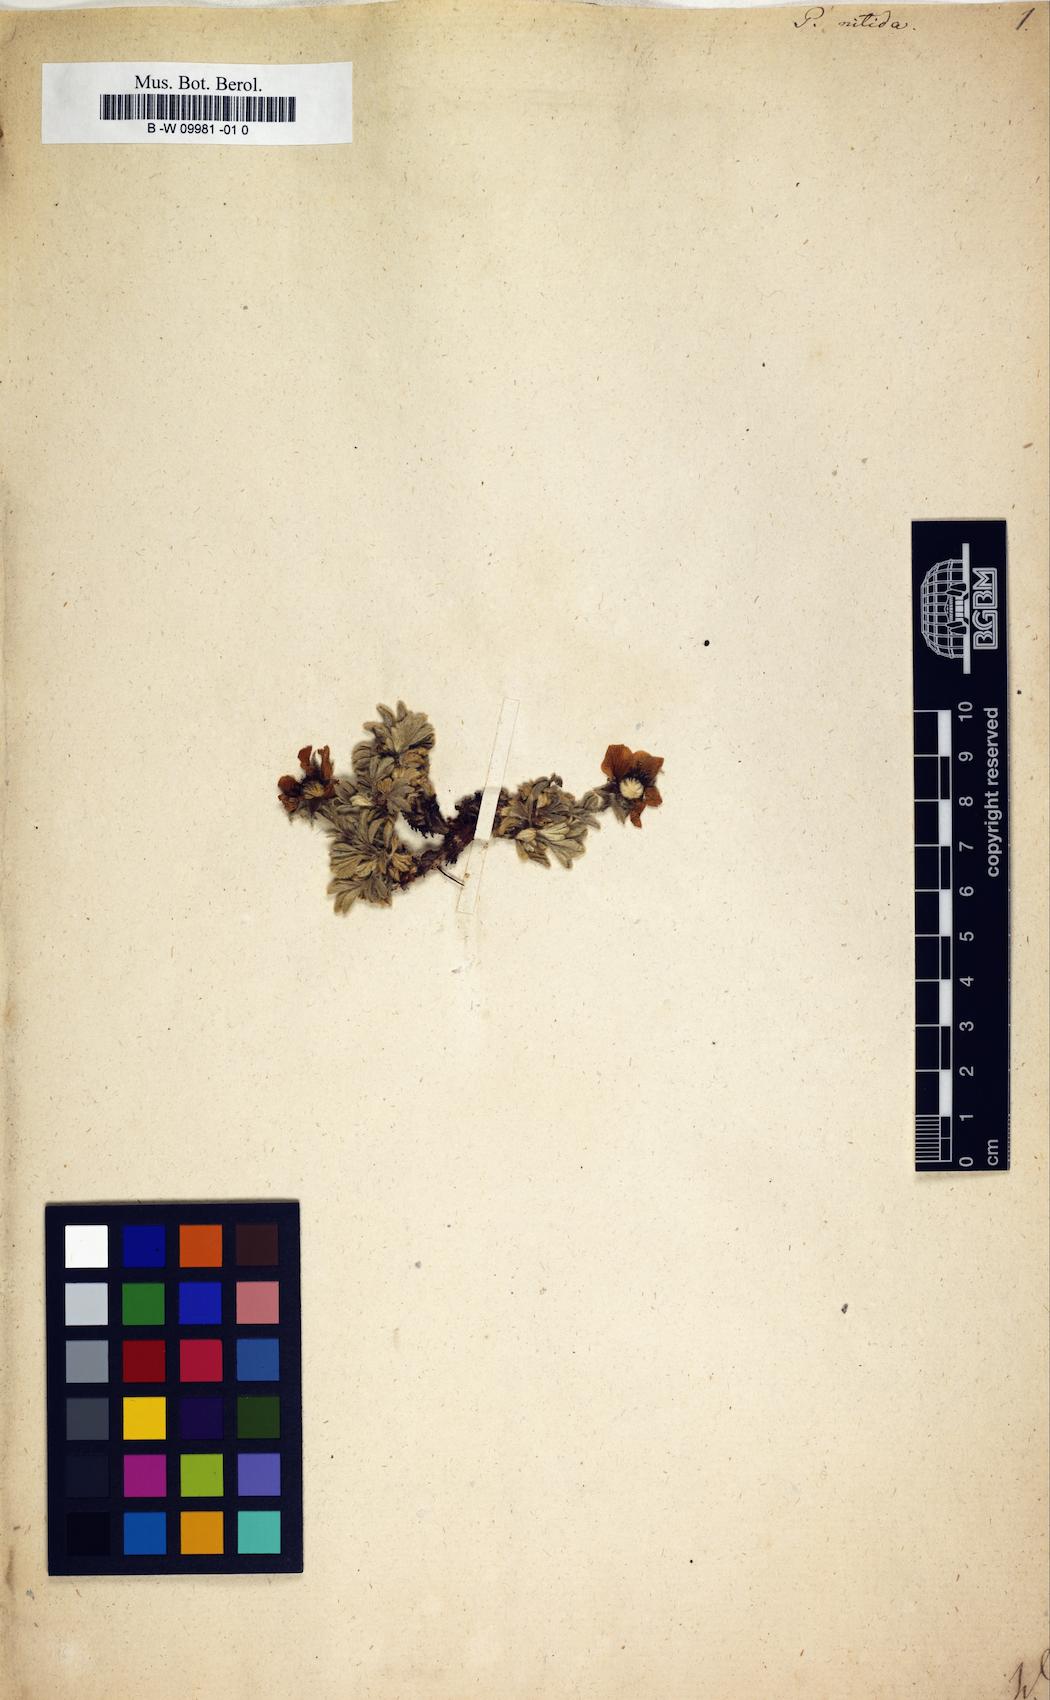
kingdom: Plantae
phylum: Tracheophyta
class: Magnoliopsida
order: Rosales
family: Rosaceae
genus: Potentilla
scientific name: Potentilla nitida
